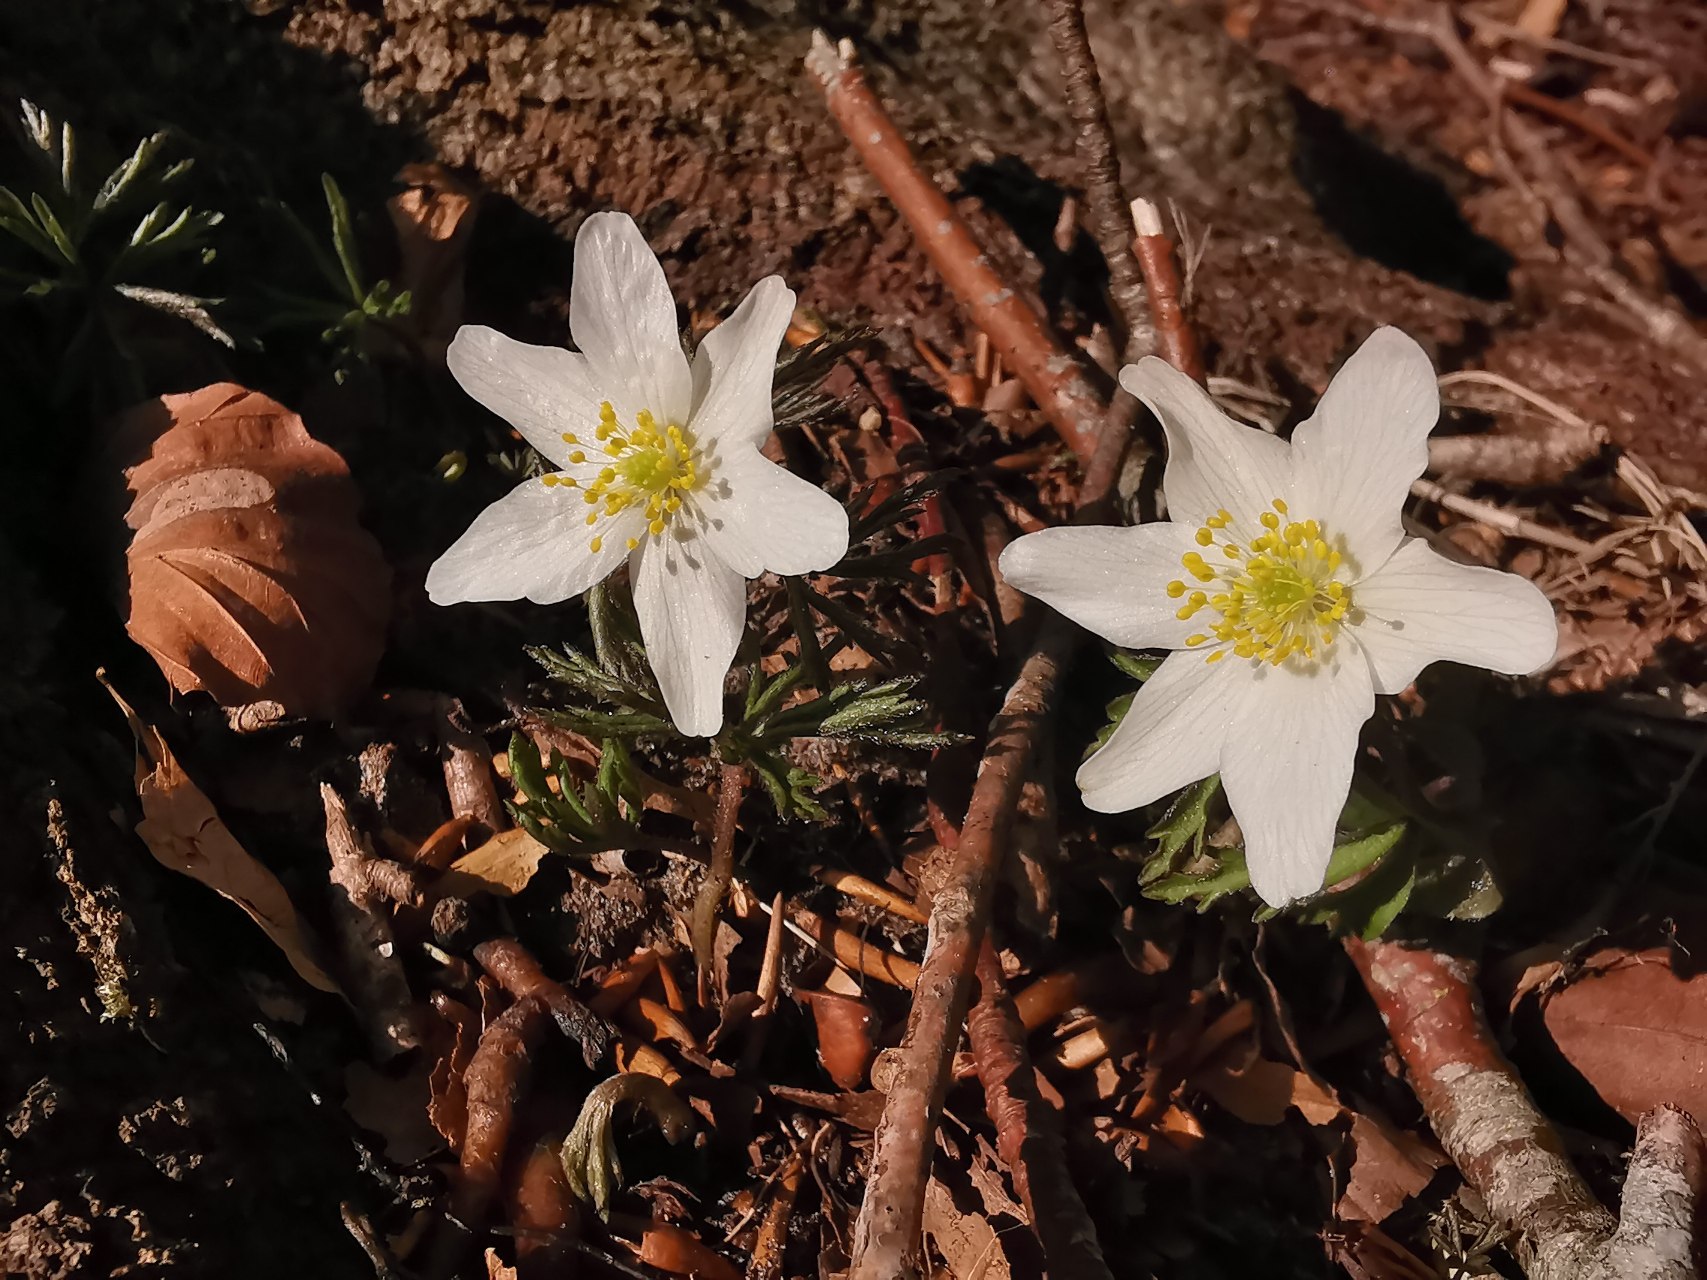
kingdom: Plantae
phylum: Tracheophyta
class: Magnoliopsida
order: Ranunculales
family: Ranunculaceae
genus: Anemone
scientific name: Anemone nemorosa
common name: Hvid anemone
